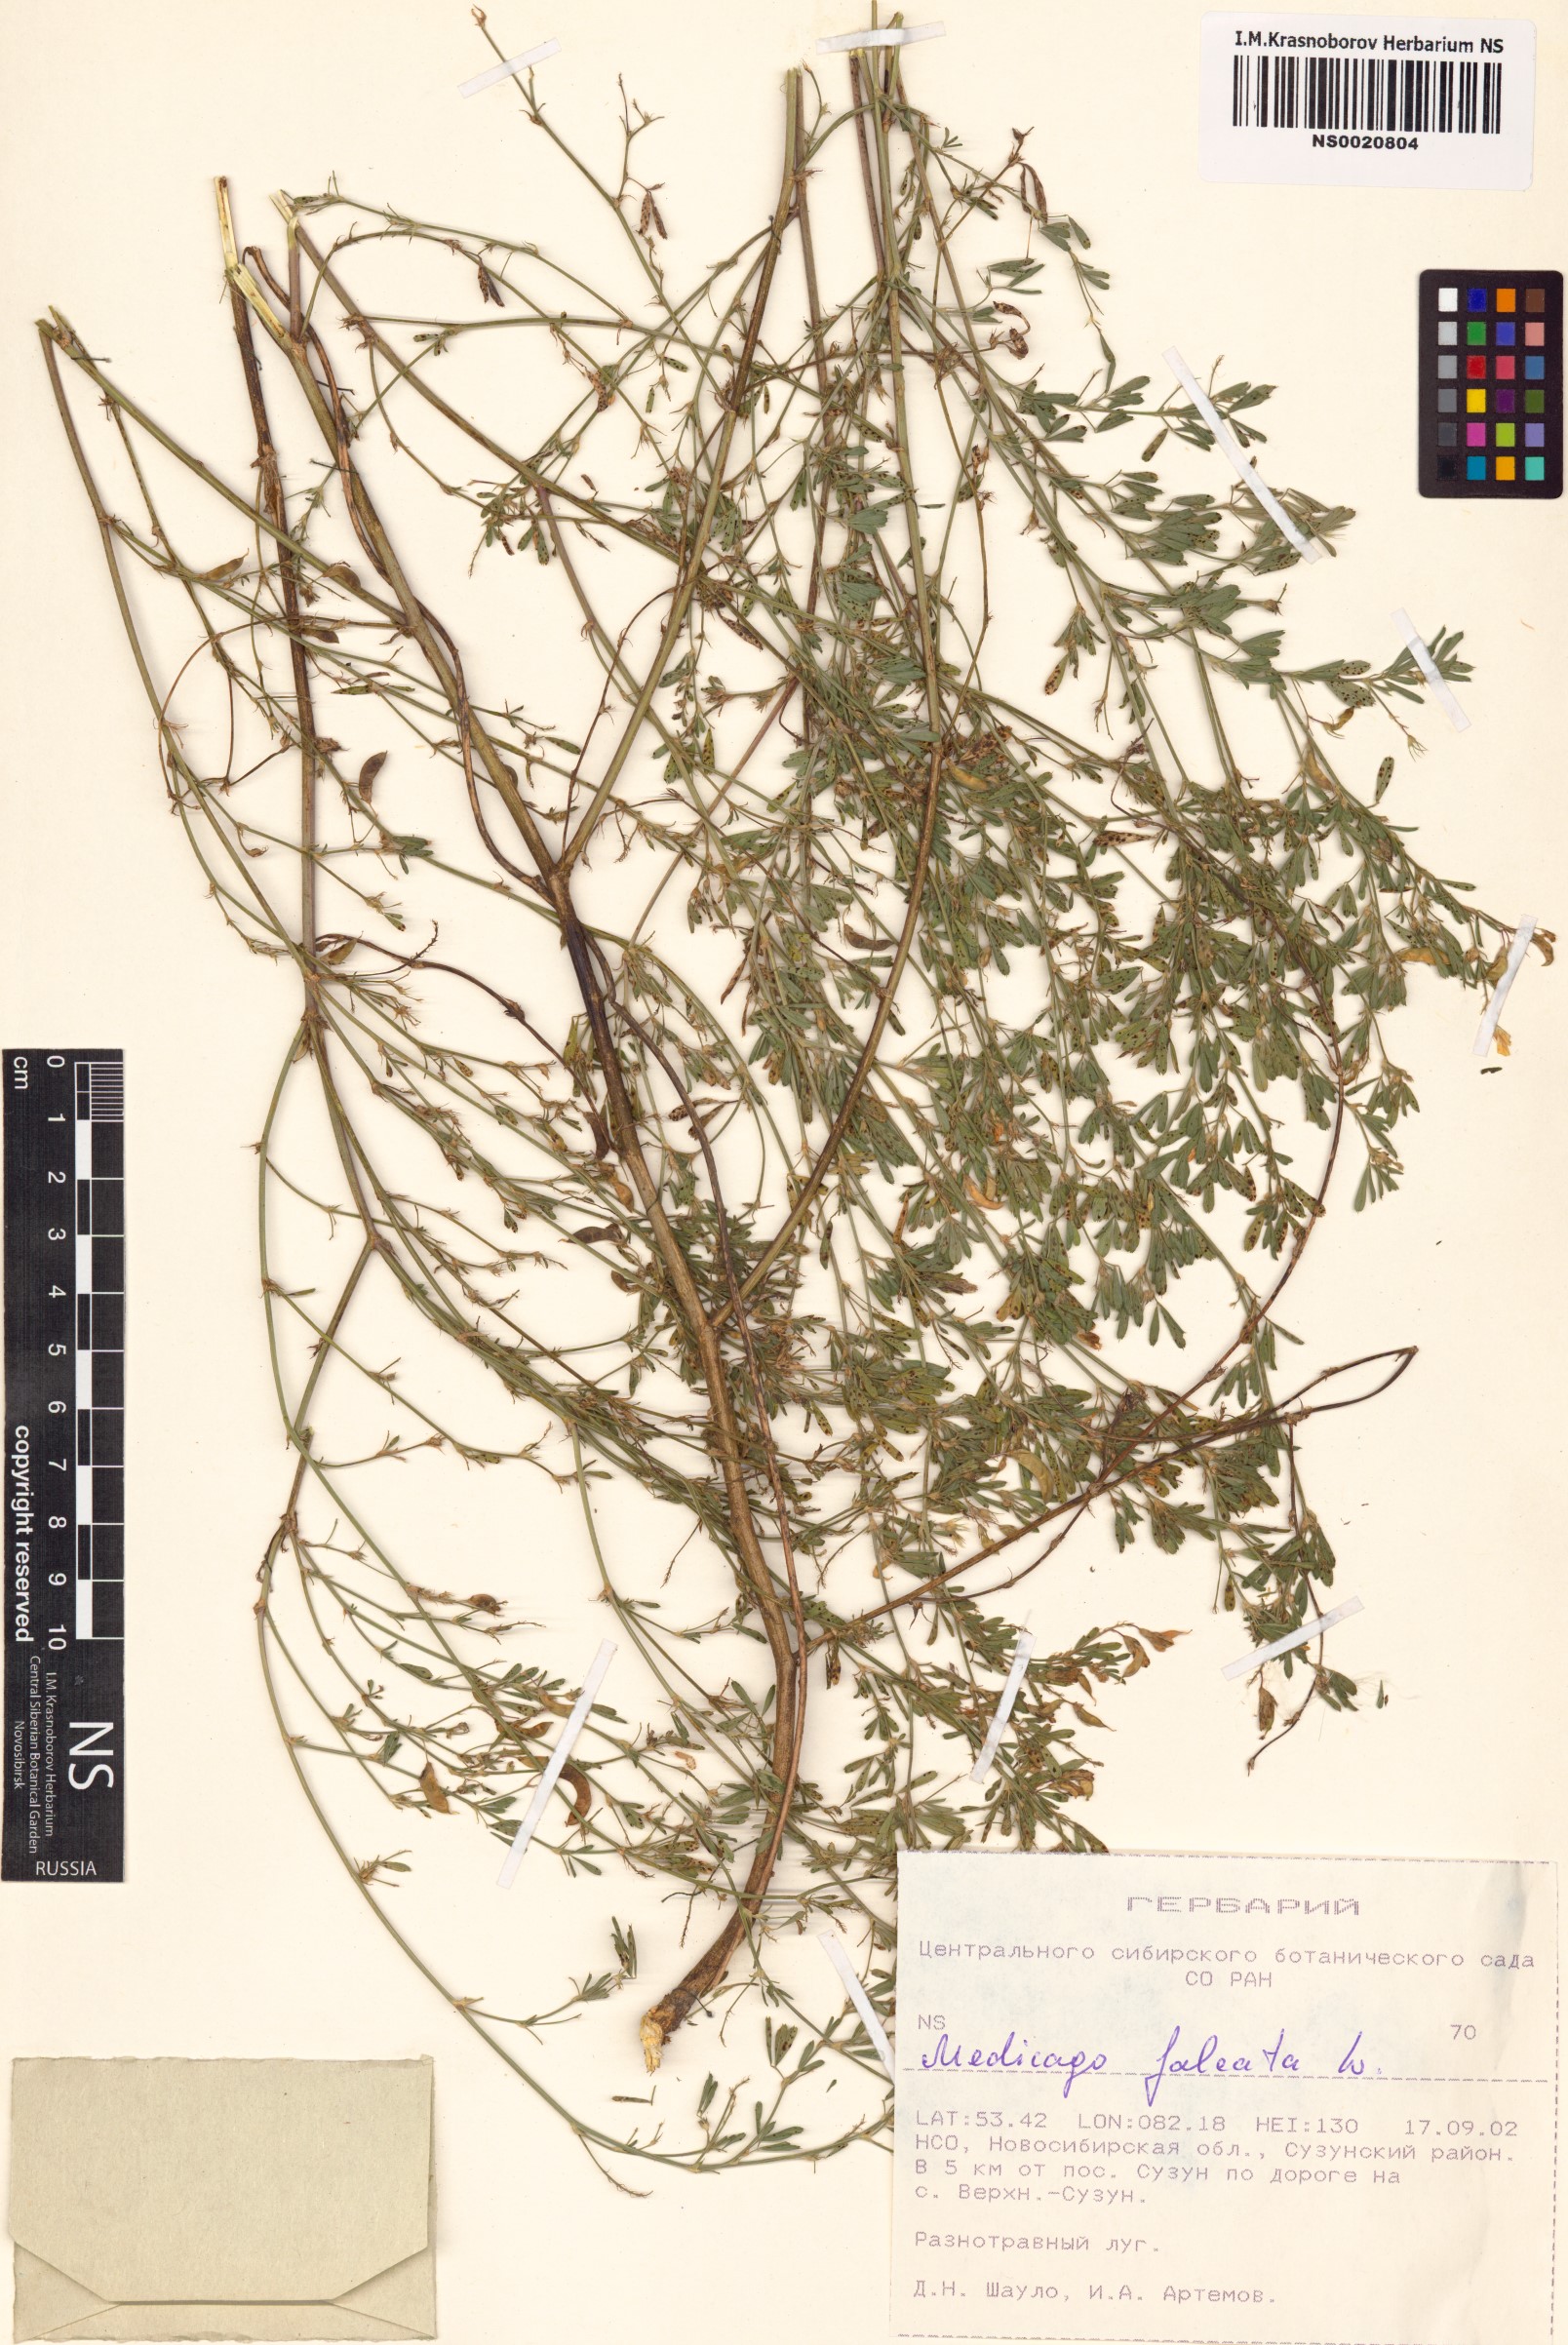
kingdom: Plantae
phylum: Tracheophyta
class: Magnoliopsida
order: Fabales
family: Fabaceae
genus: Medicago
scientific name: Medicago falcata
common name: Sickle medick
